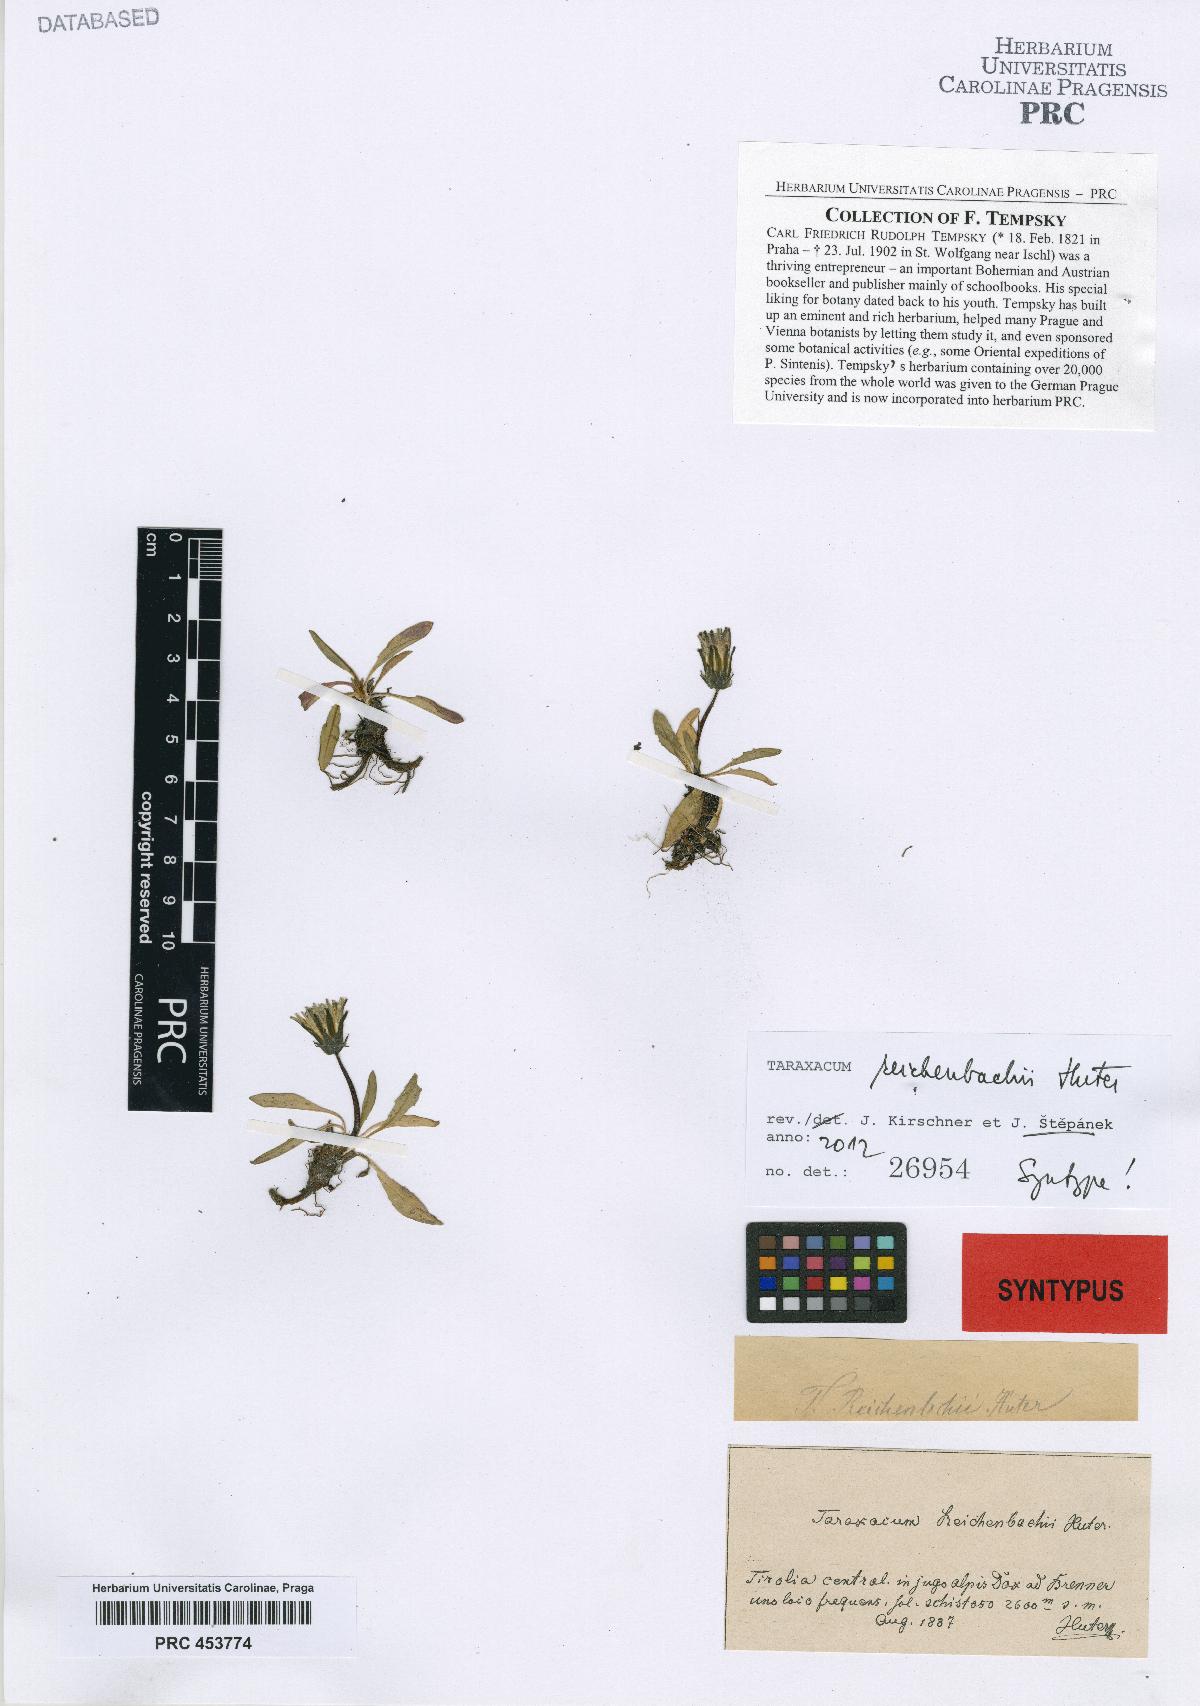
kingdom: Plantae
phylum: Tracheophyta
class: Magnoliopsida
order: Asterales
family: Asteraceae
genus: Taraxacum
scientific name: Taraxacum reichenbachii
